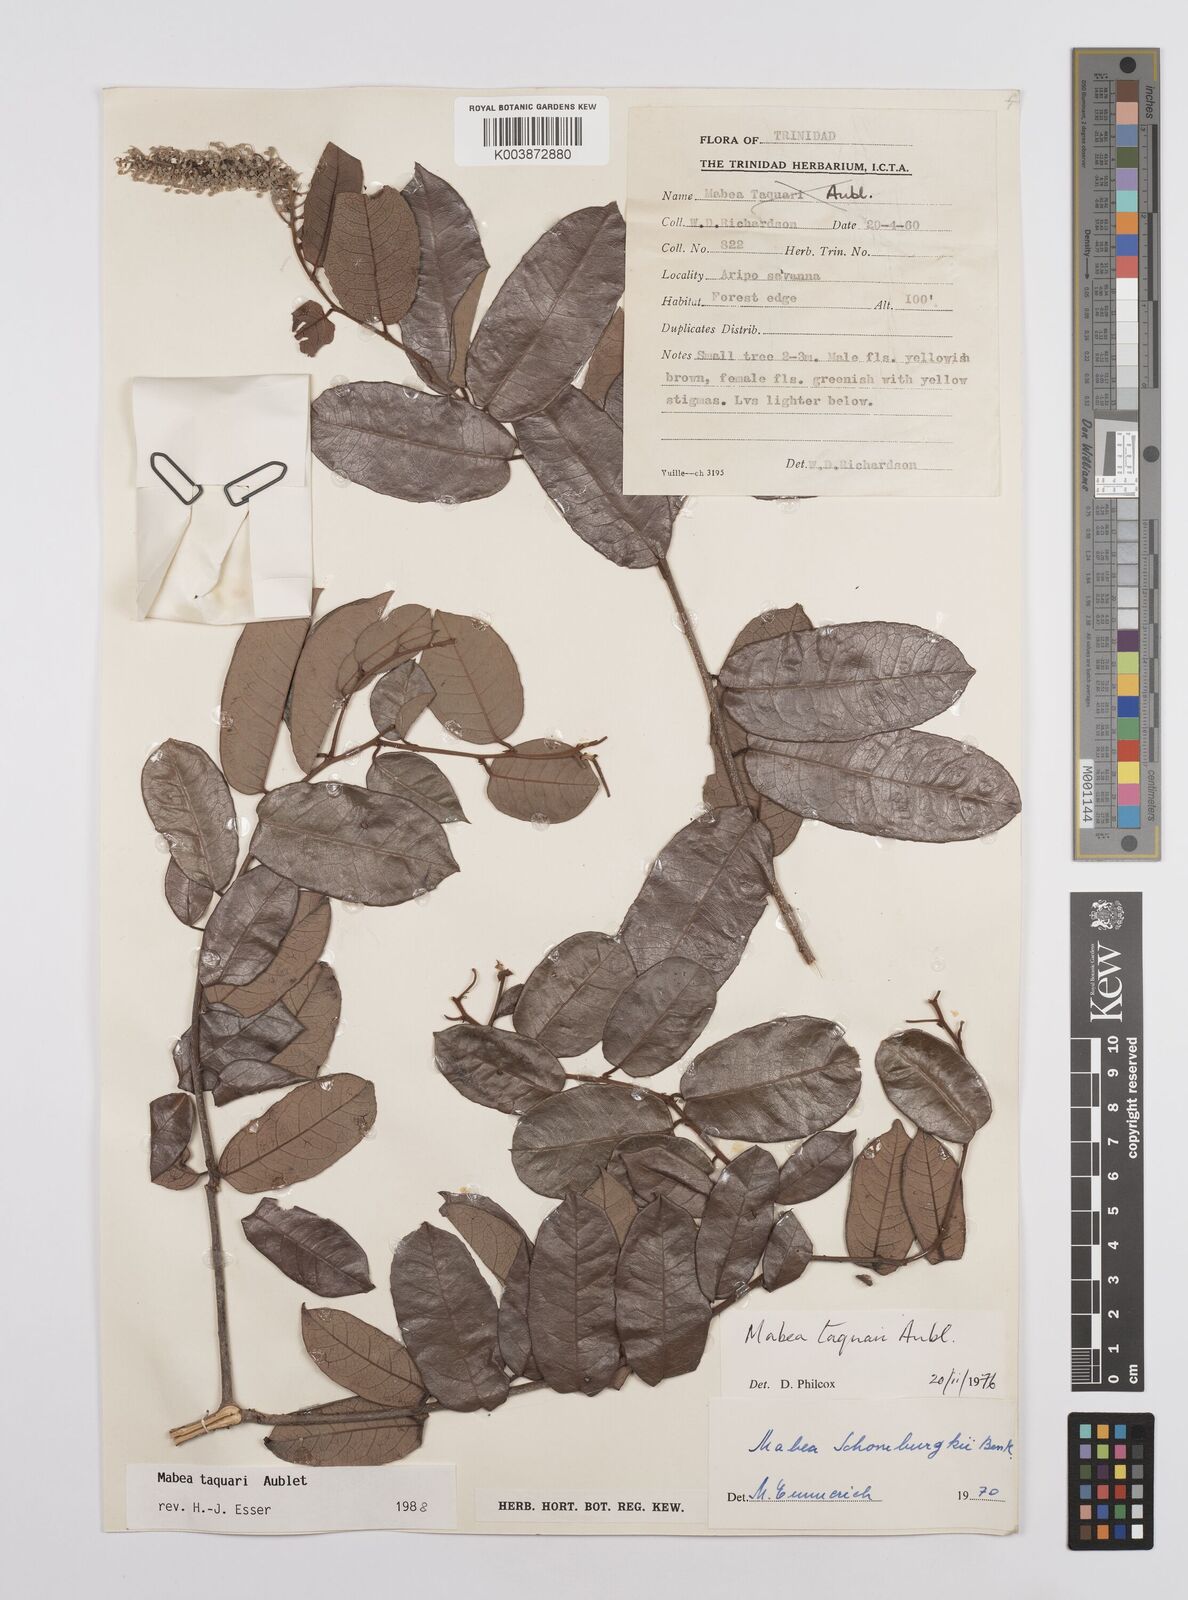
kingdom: Plantae
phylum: Tracheophyta
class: Magnoliopsida
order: Malpighiales
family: Euphorbiaceae
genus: Mabea
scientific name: Mabea taquari
